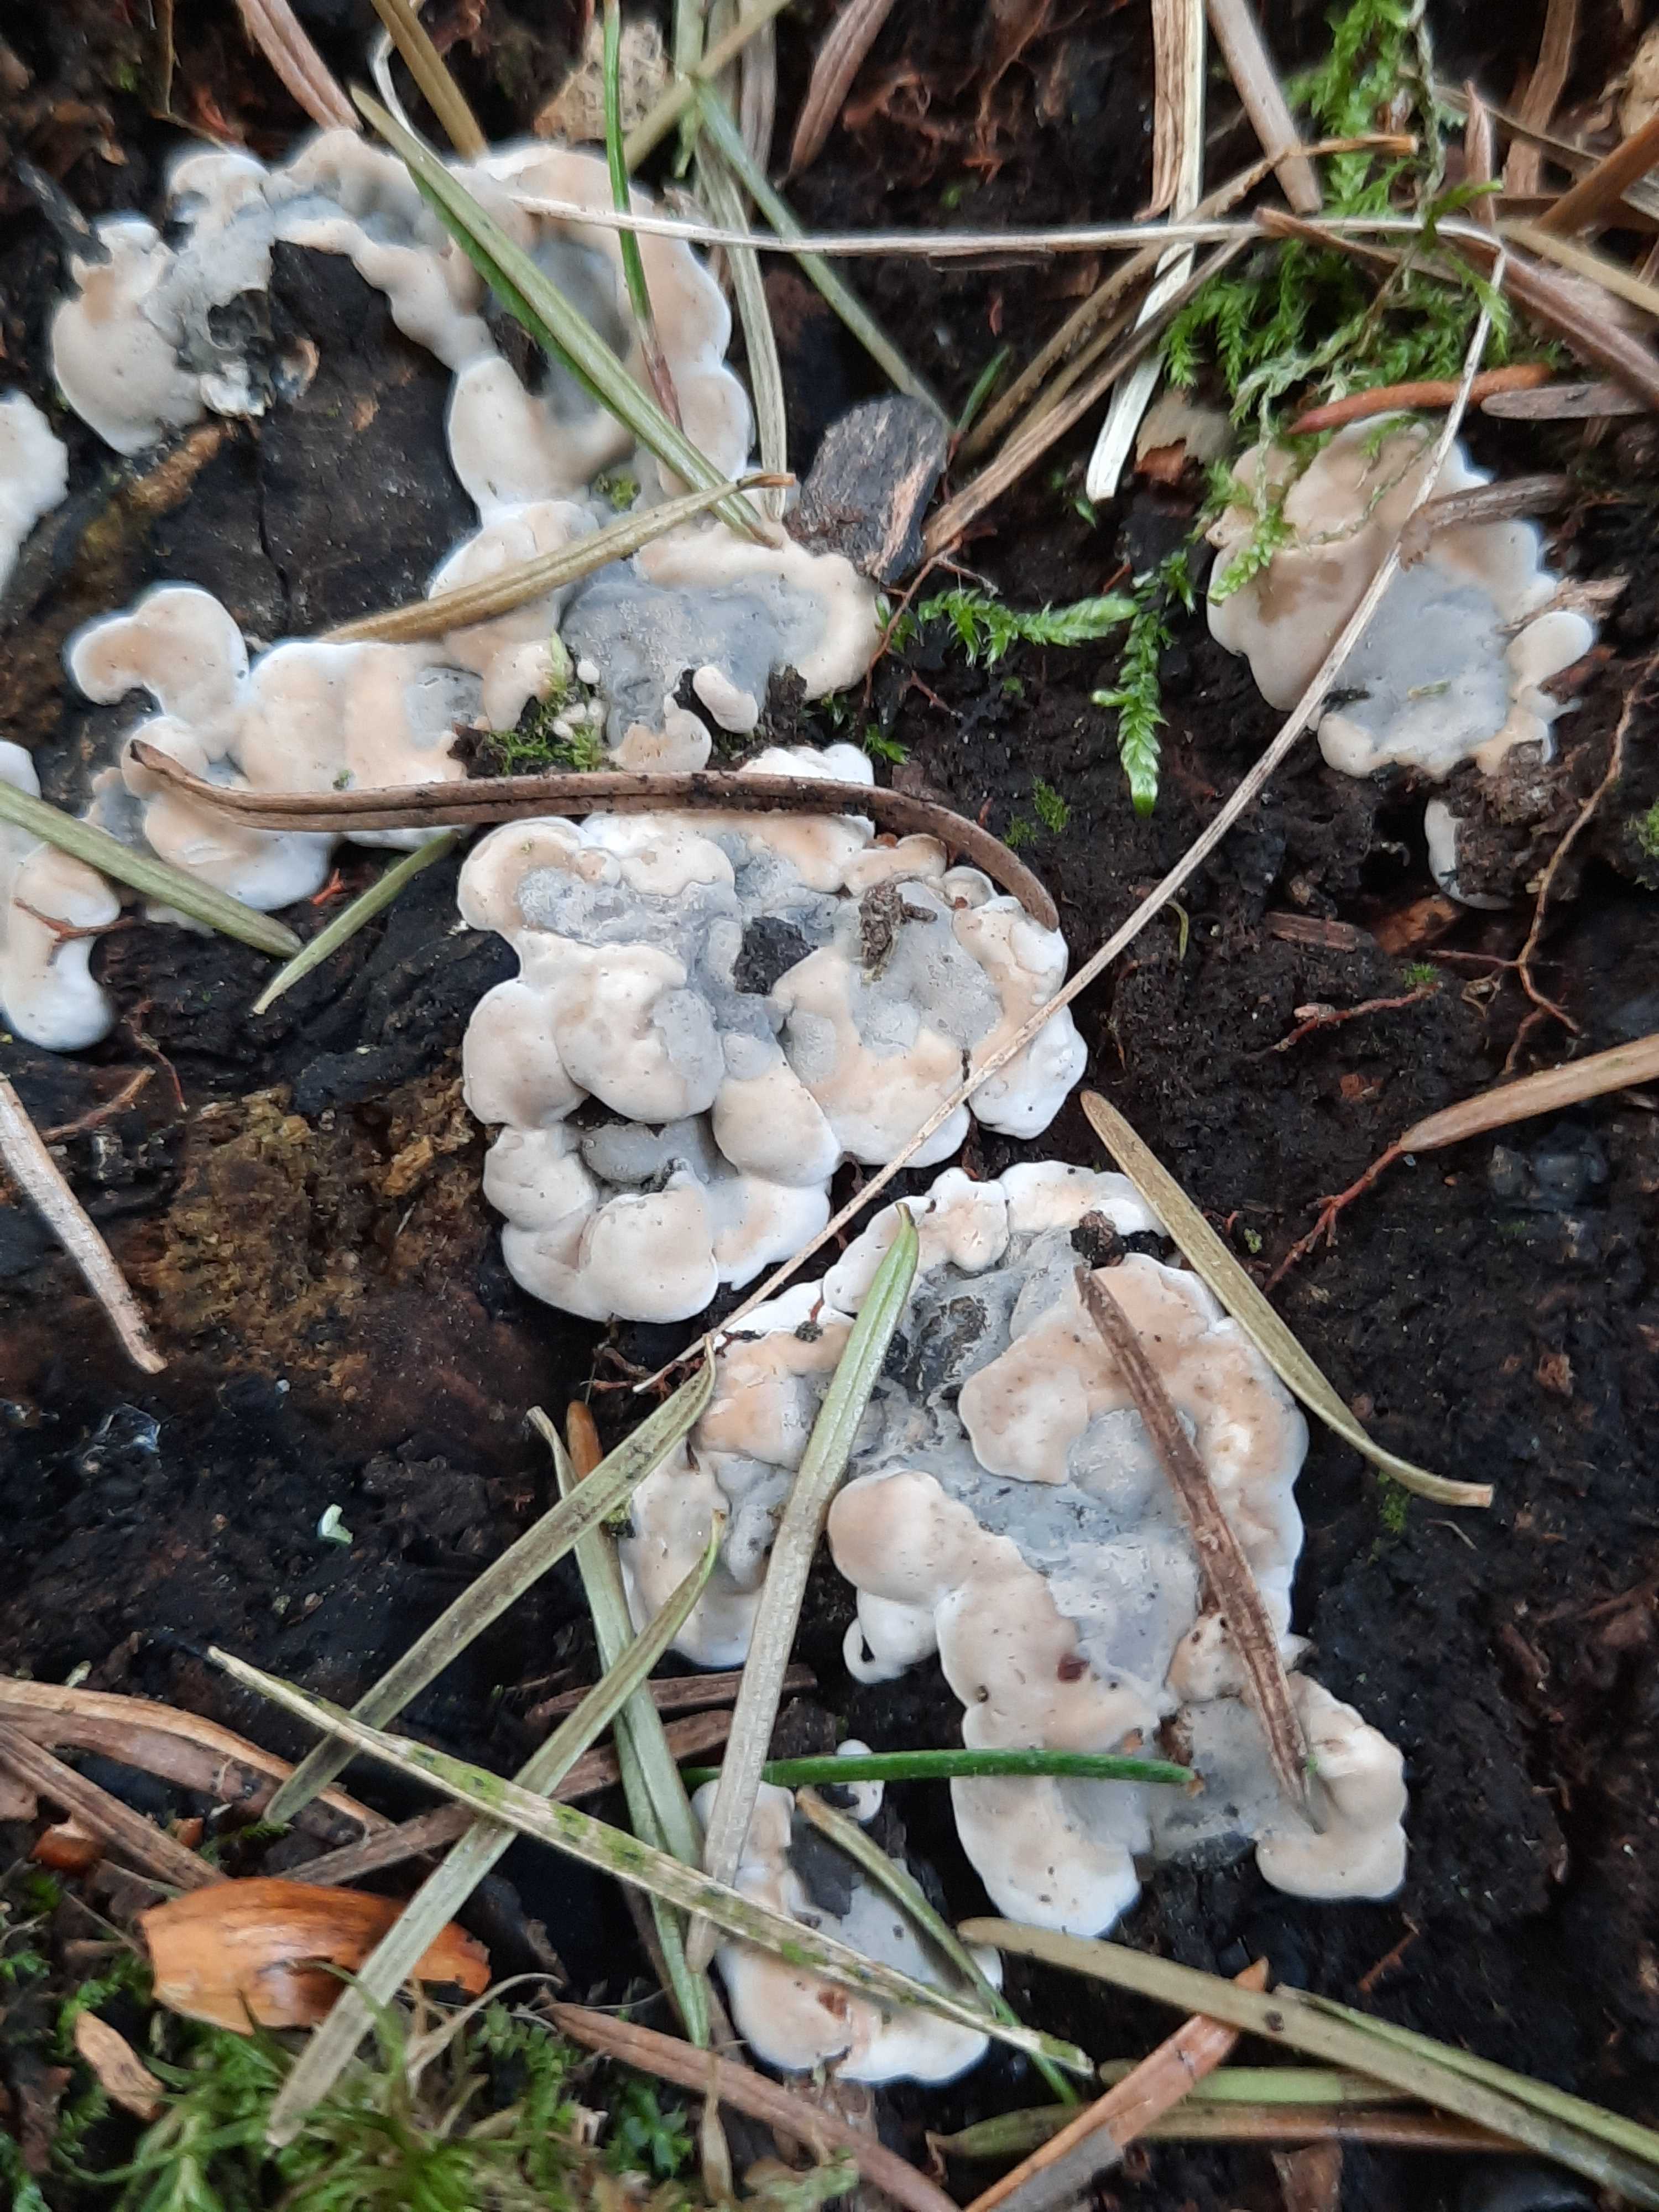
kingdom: Fungi
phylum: Ascomycota
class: Sordariomycetes
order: Xylariales
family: Xylariaceae
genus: Kretzschmaria
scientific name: Kretzschmaria deusta
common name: stor kulsvamp
